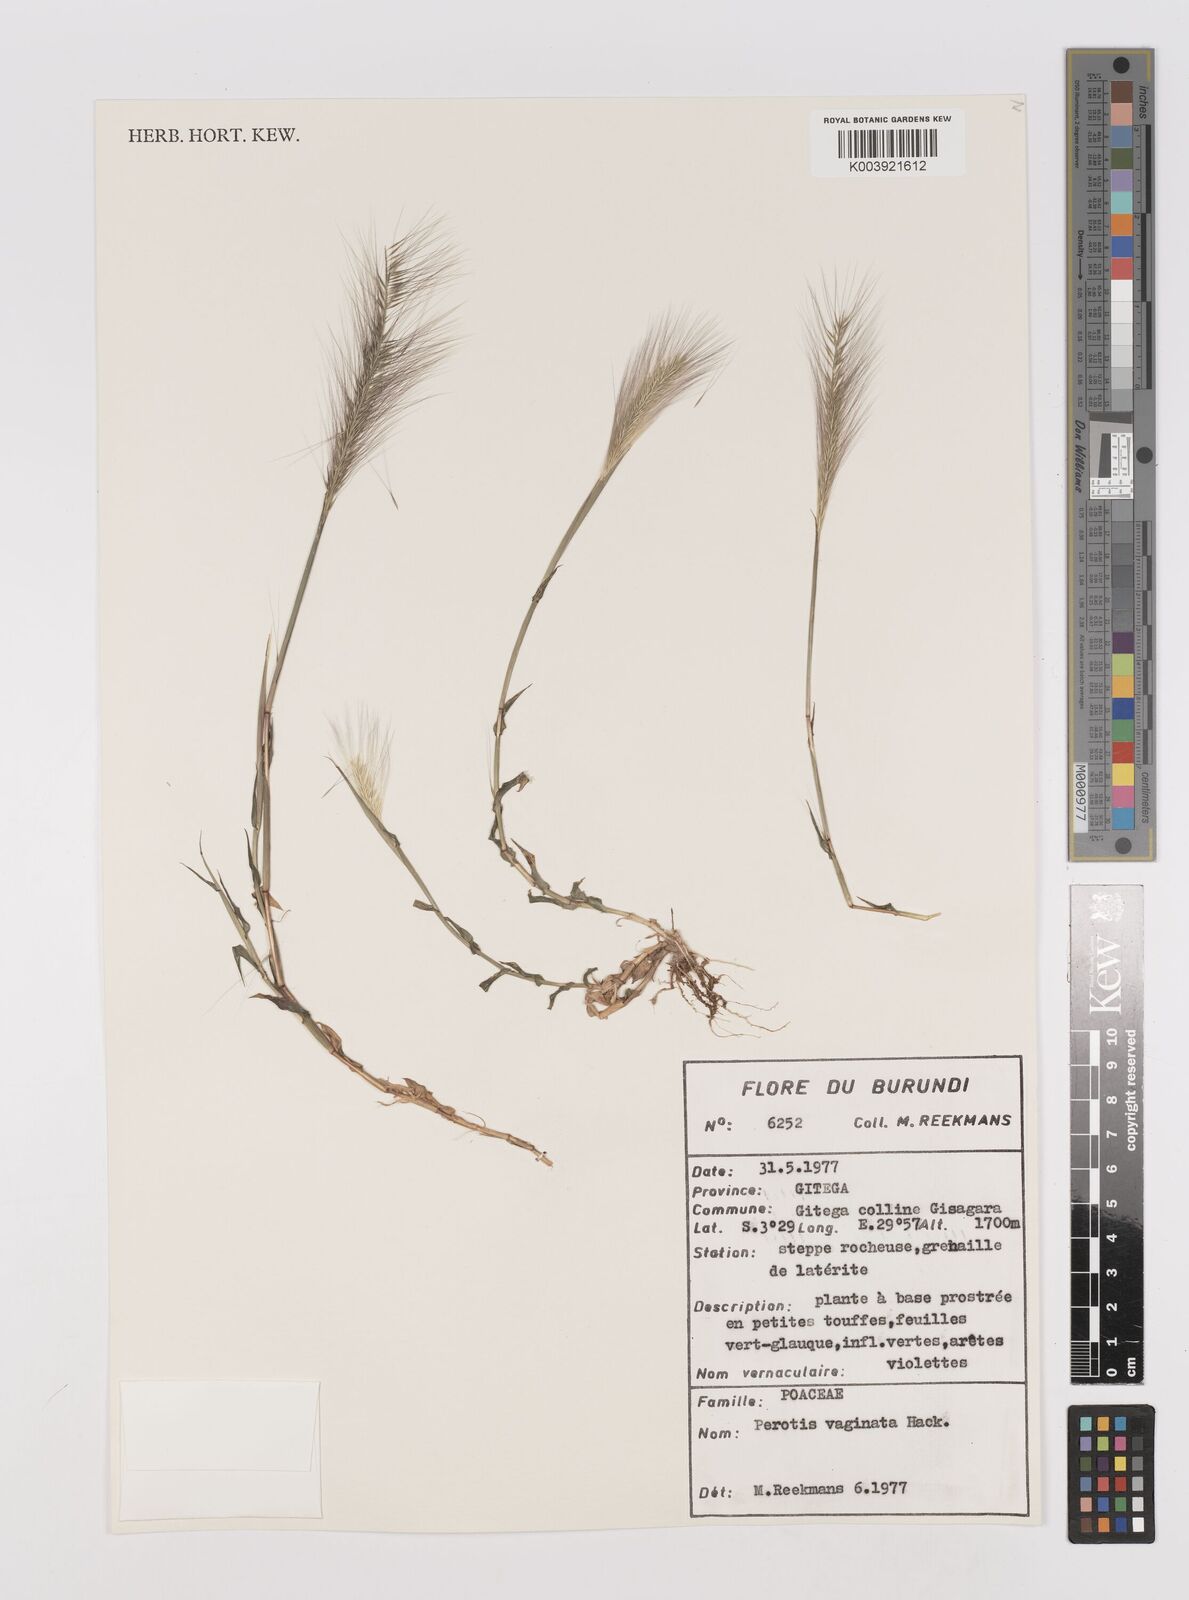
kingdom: Plantae
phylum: Tracheophyta
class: Liliopsida
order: Poales
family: Poaceae
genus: Perotis
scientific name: Perotis vaginata
